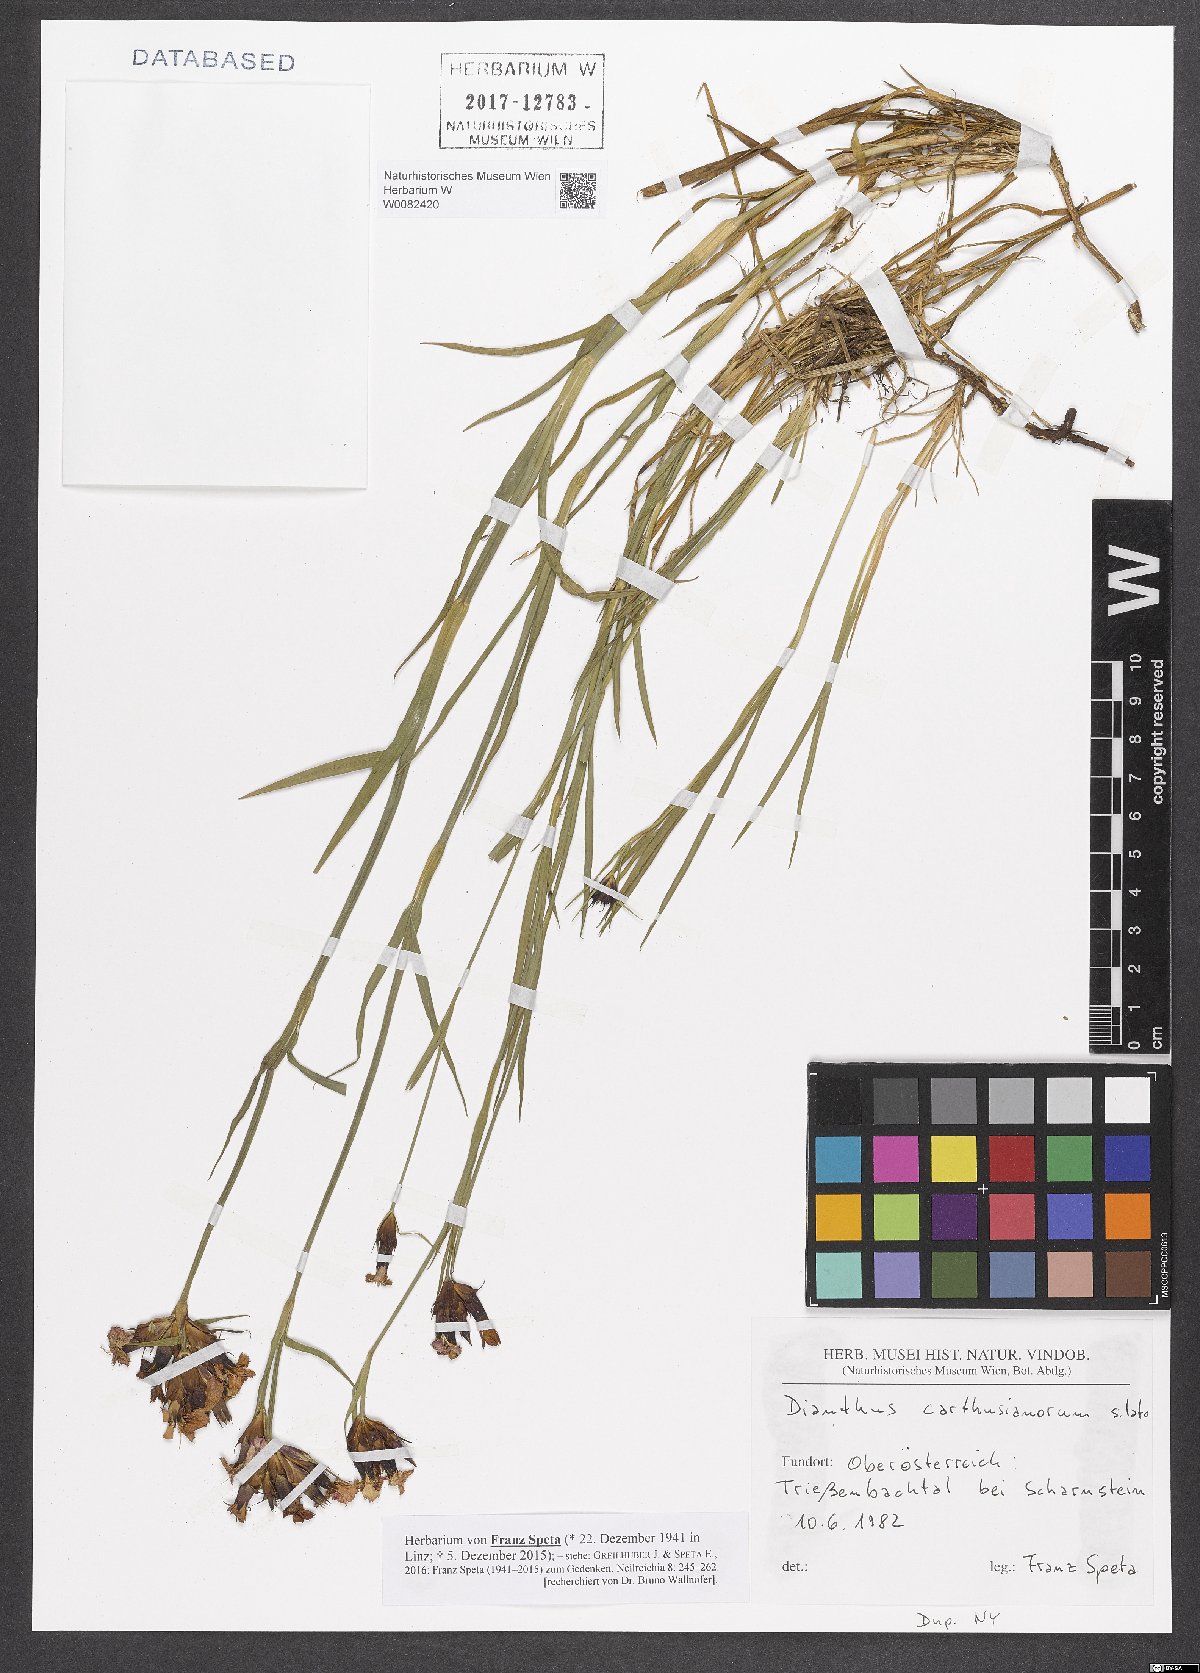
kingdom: Plantae
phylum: Tracheophyta
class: Magnoliopsida
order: Caryophyllales
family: Caryophyllaceae
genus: Dianthus
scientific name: Dianthus carthusianorum
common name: Carthusian pink
